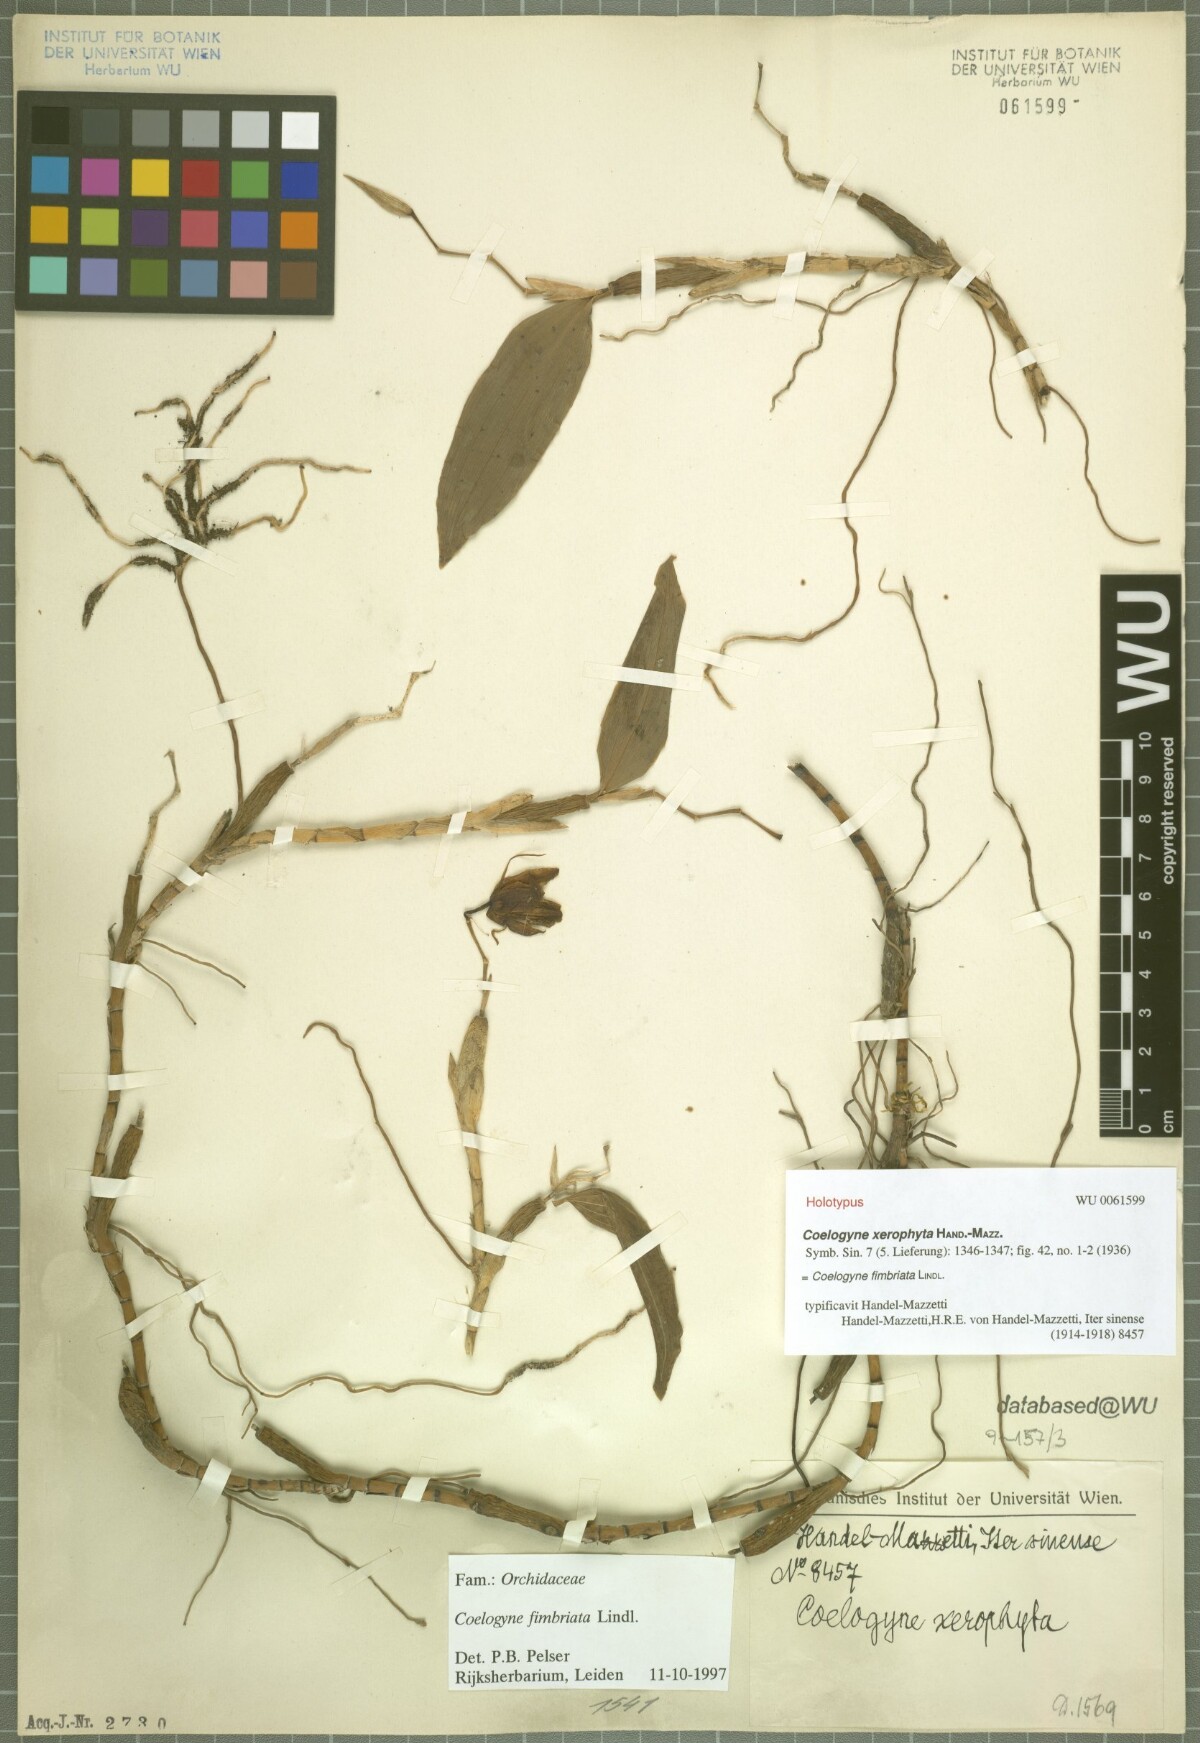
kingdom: Plantae
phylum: Tracheophyta
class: Liliopsida
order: Asparagales
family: Orchidaceae
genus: Coelogyne
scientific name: Coelogyne fimbriata
